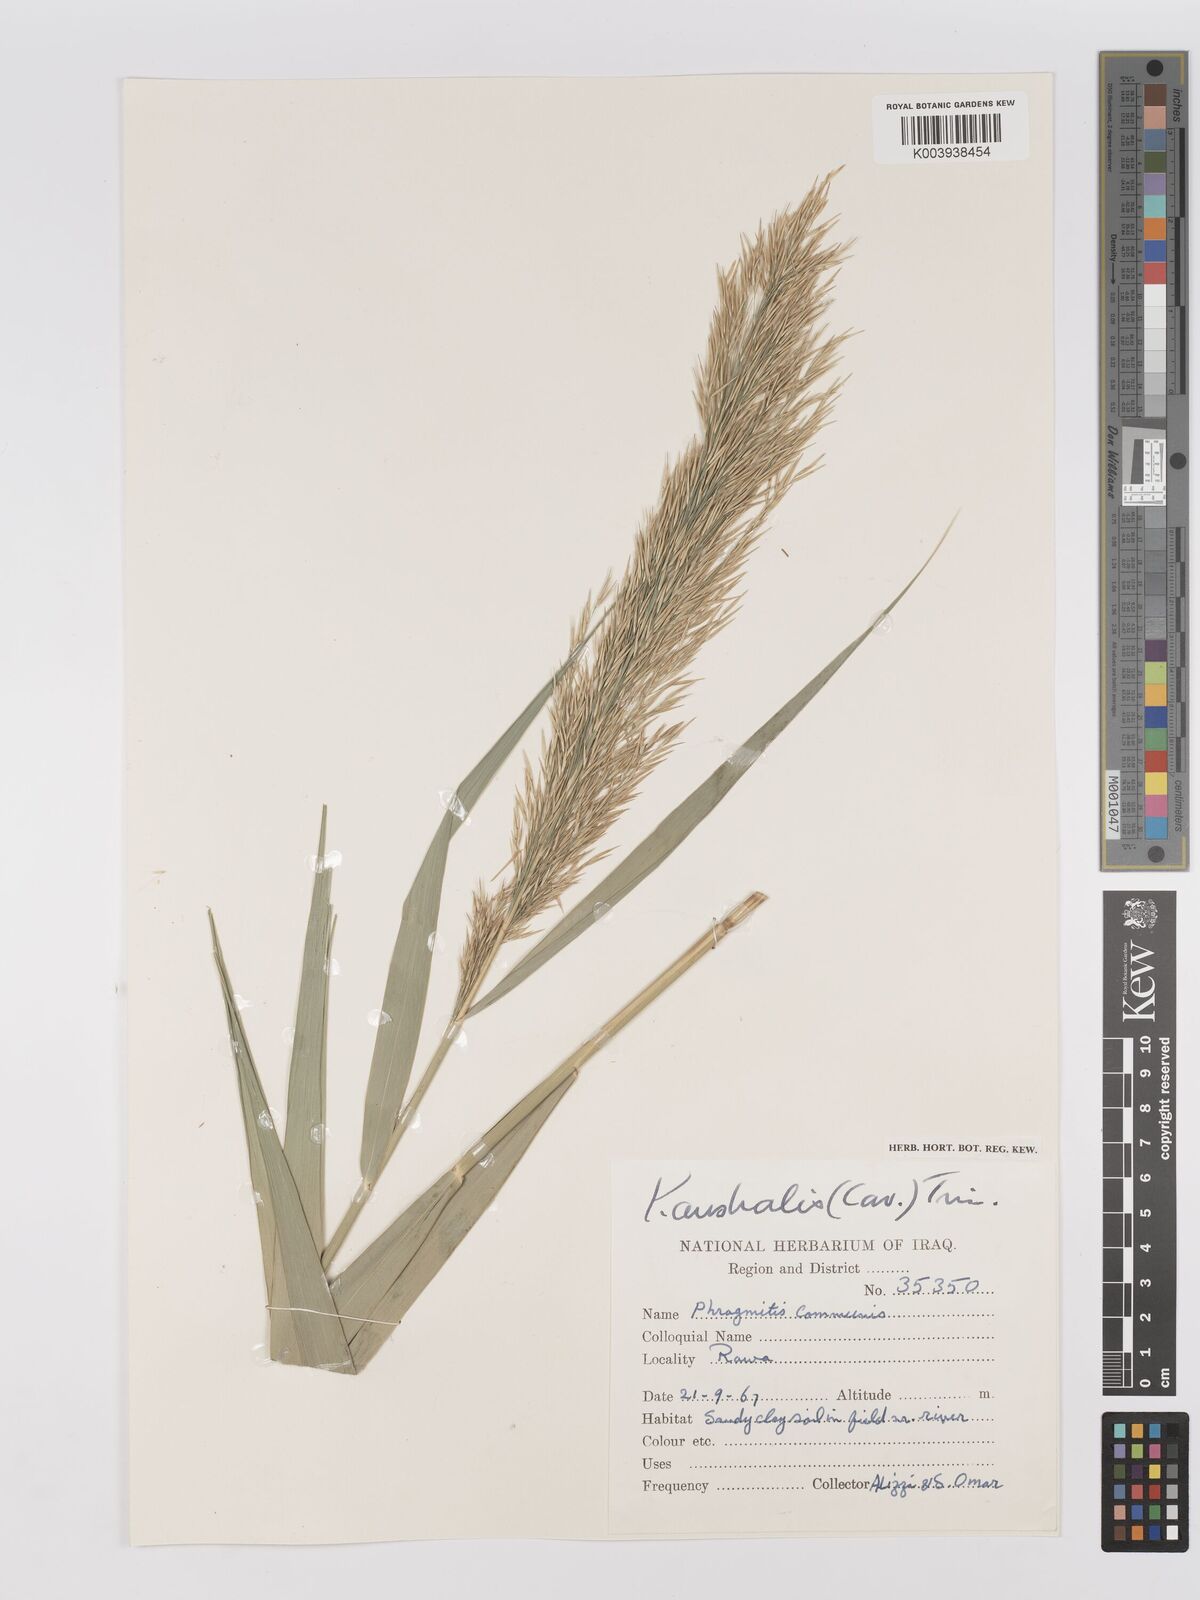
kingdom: Plantae
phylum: Tracheophyta
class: Liliopsida
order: Poales
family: Poaceae
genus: Phragmites
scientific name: Phragmites australis
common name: Common reed
